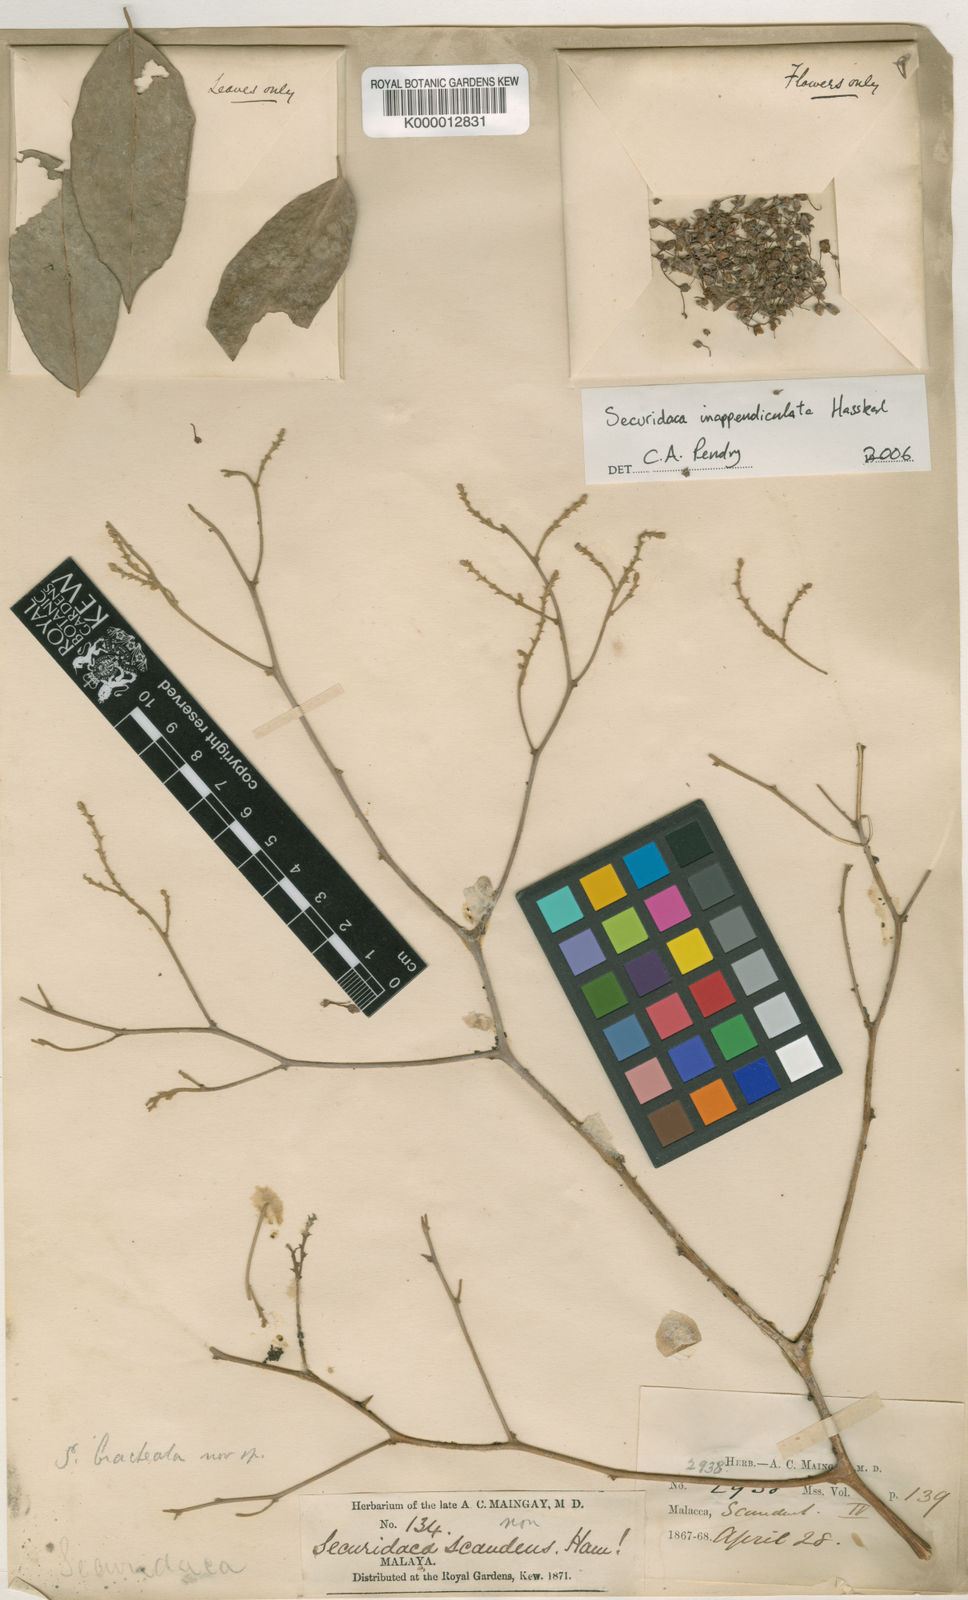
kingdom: Plantae
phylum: Tracheophyta
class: Magnoliopsida
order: Fabales
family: Polygalaceae
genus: Securidaca
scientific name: Securidaca inappendiculata
